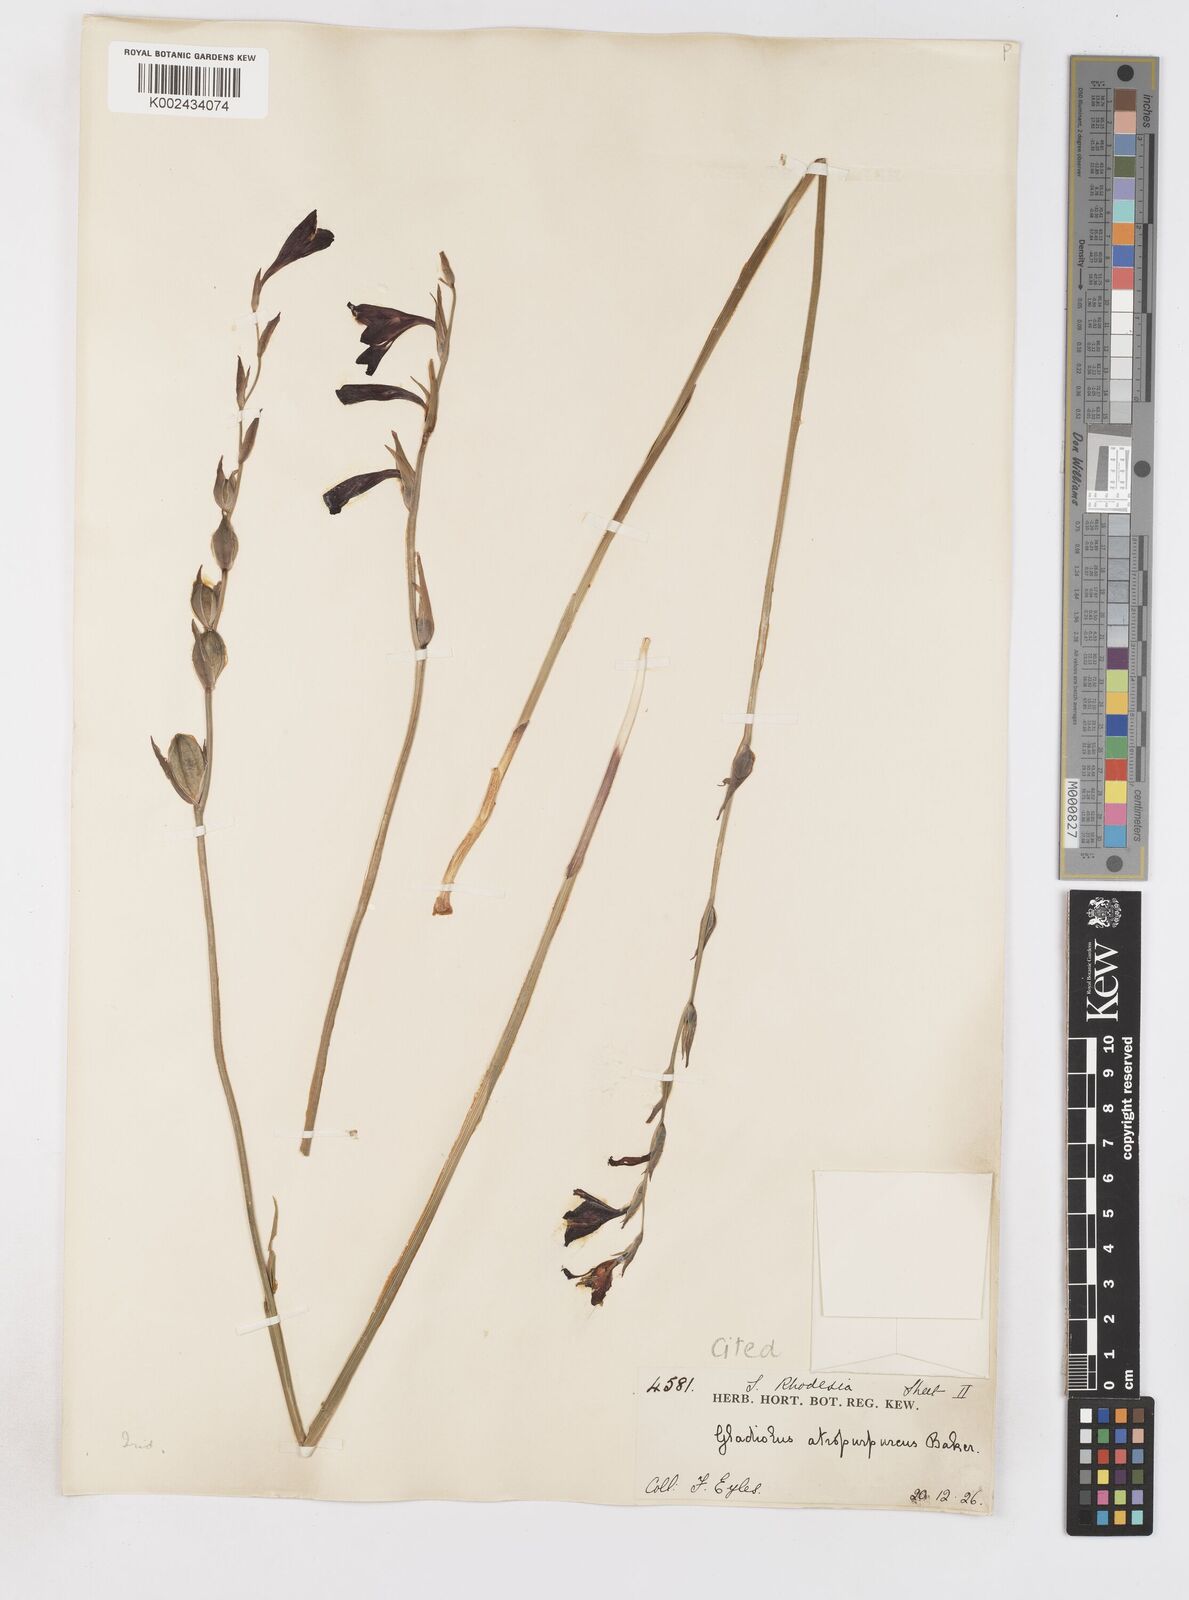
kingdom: Plantae
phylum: Tracheophyta
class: Liliopsida
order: Asparagales
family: Iridaceae
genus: Gladiolus
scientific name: Gladiolus atropurpureus
